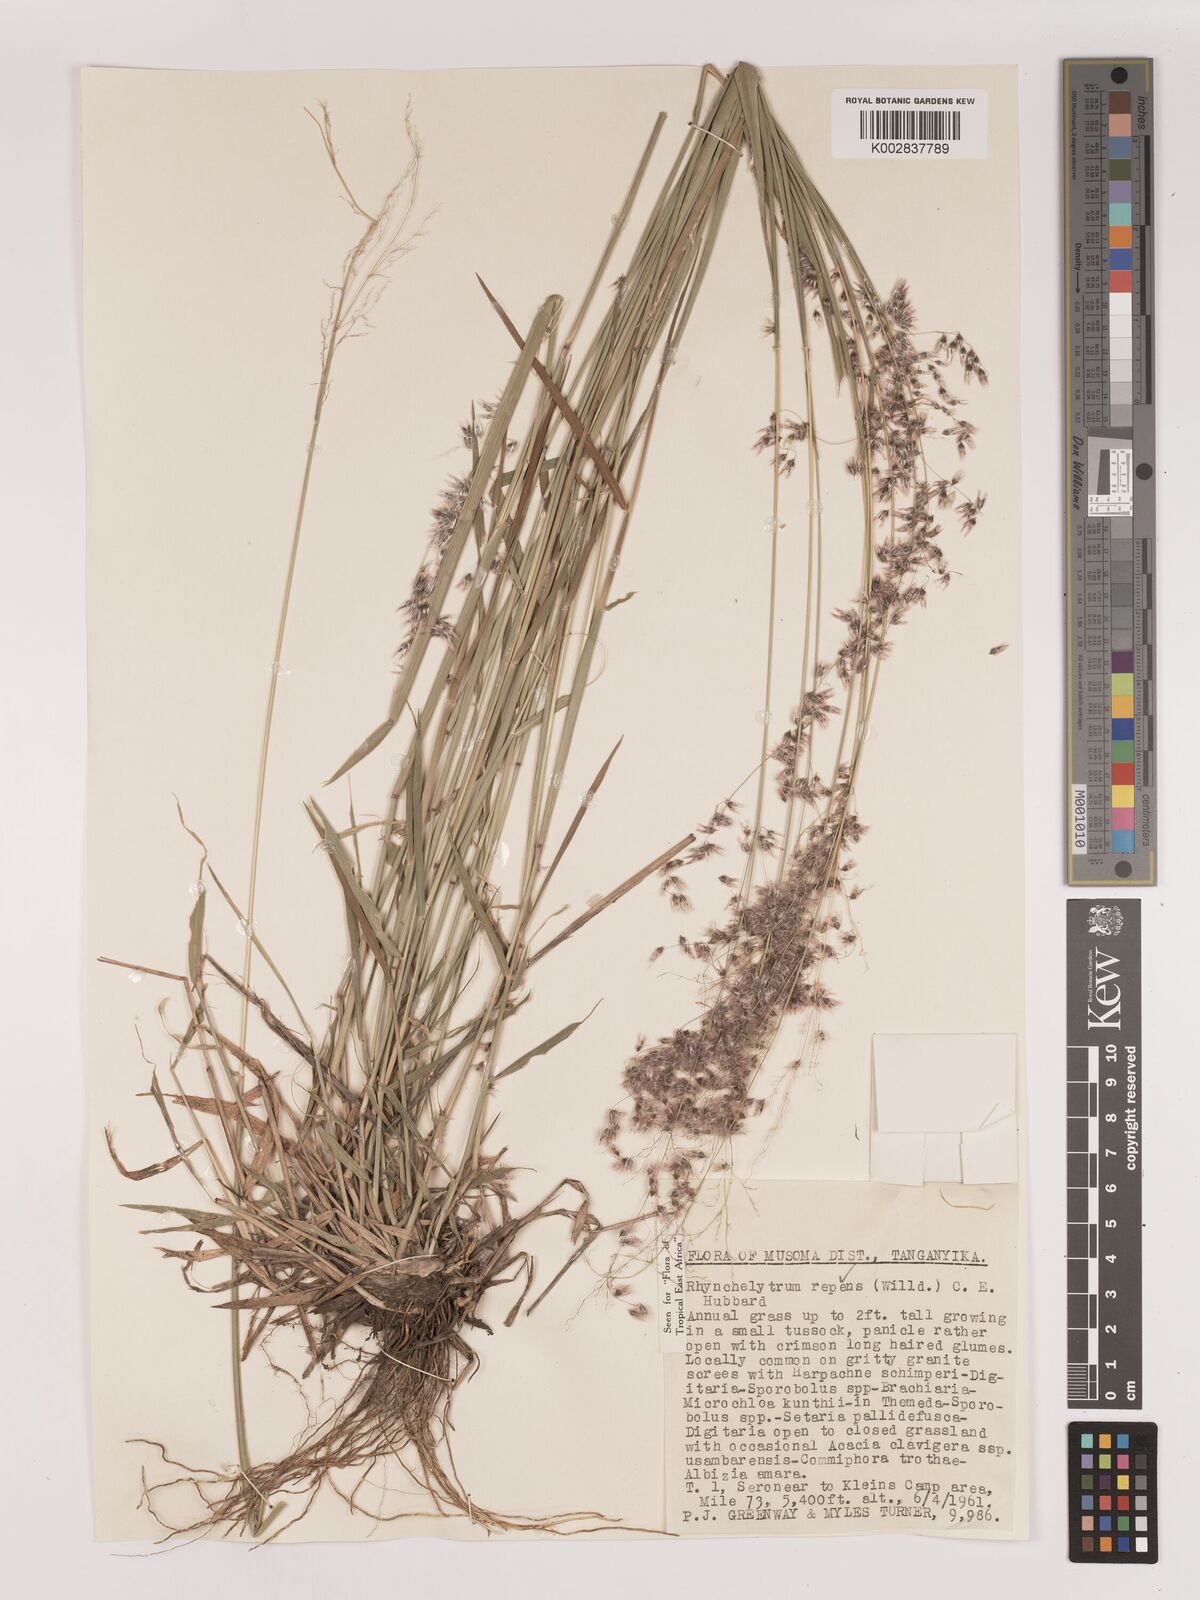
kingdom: Plantae
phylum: Tracheophyta
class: Liliopsida
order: Poales
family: Poaceae
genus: Melinis
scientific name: Melinis repens
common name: Rose natal grass
